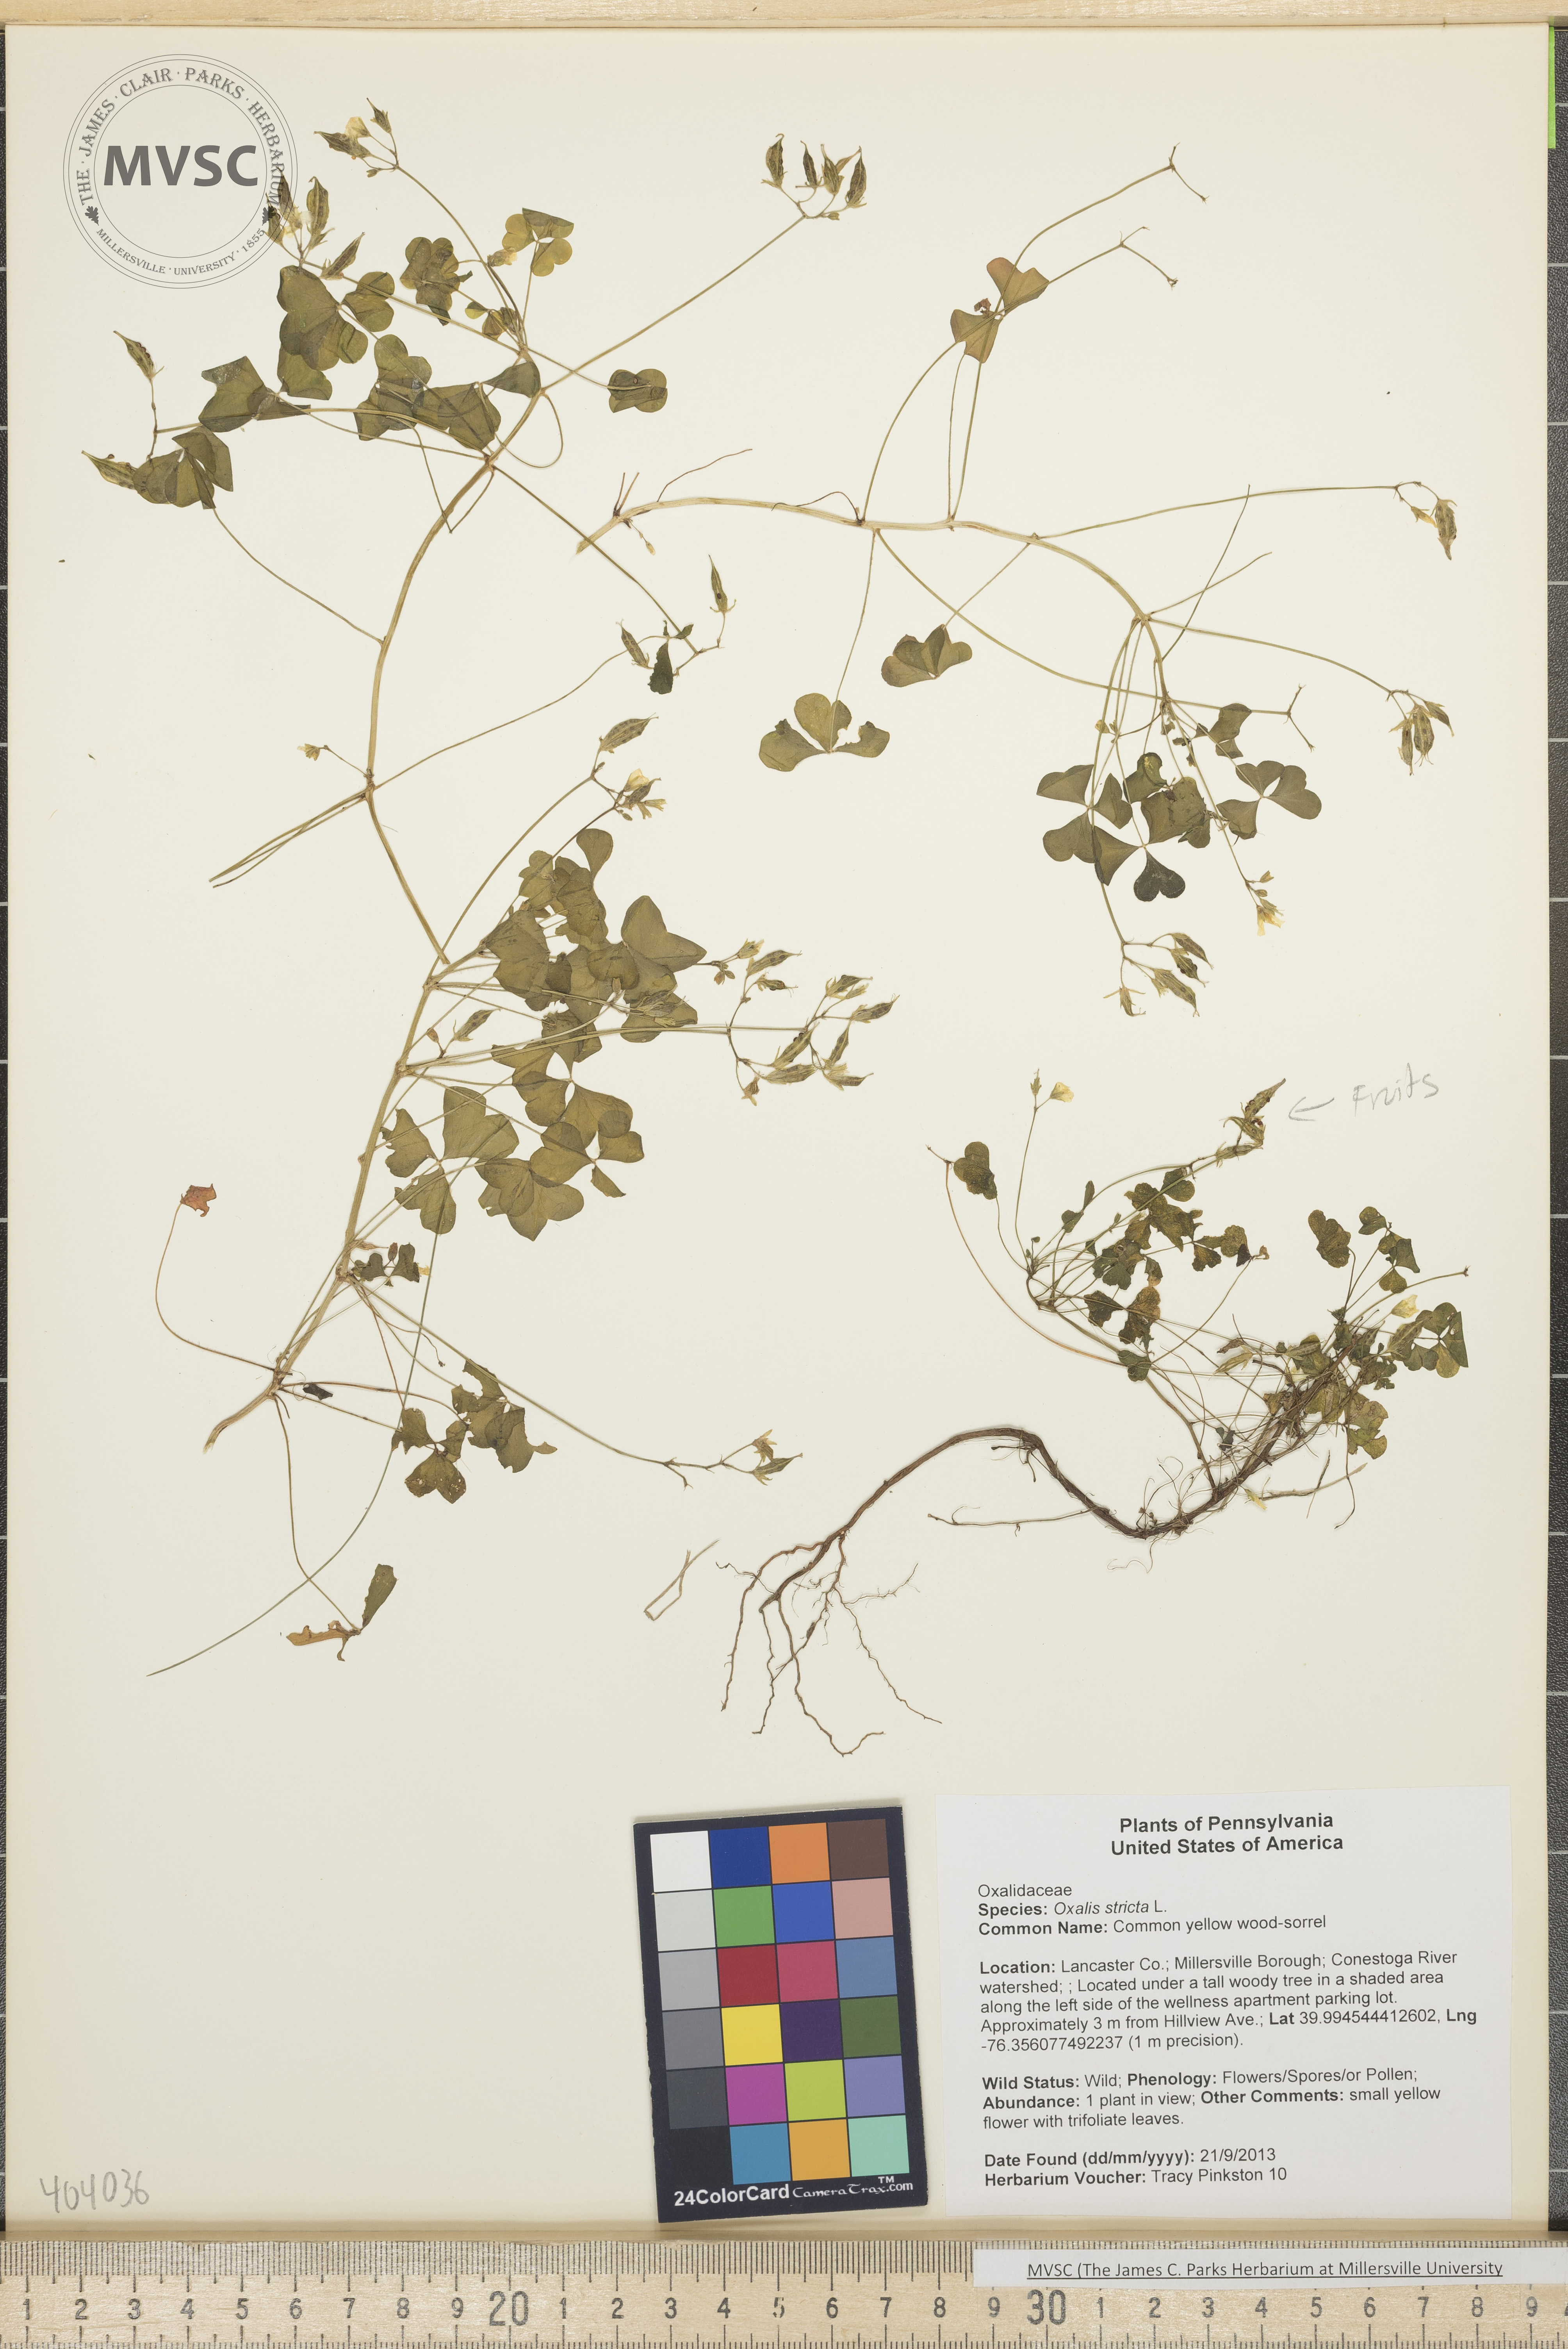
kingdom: Plantae
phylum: Tracheophyta
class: Magnoliopsida
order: Oxalidales
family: Oxalidaceae
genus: Oxalis
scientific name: Oxalis stricta
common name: Common yellow wood-sorrel
